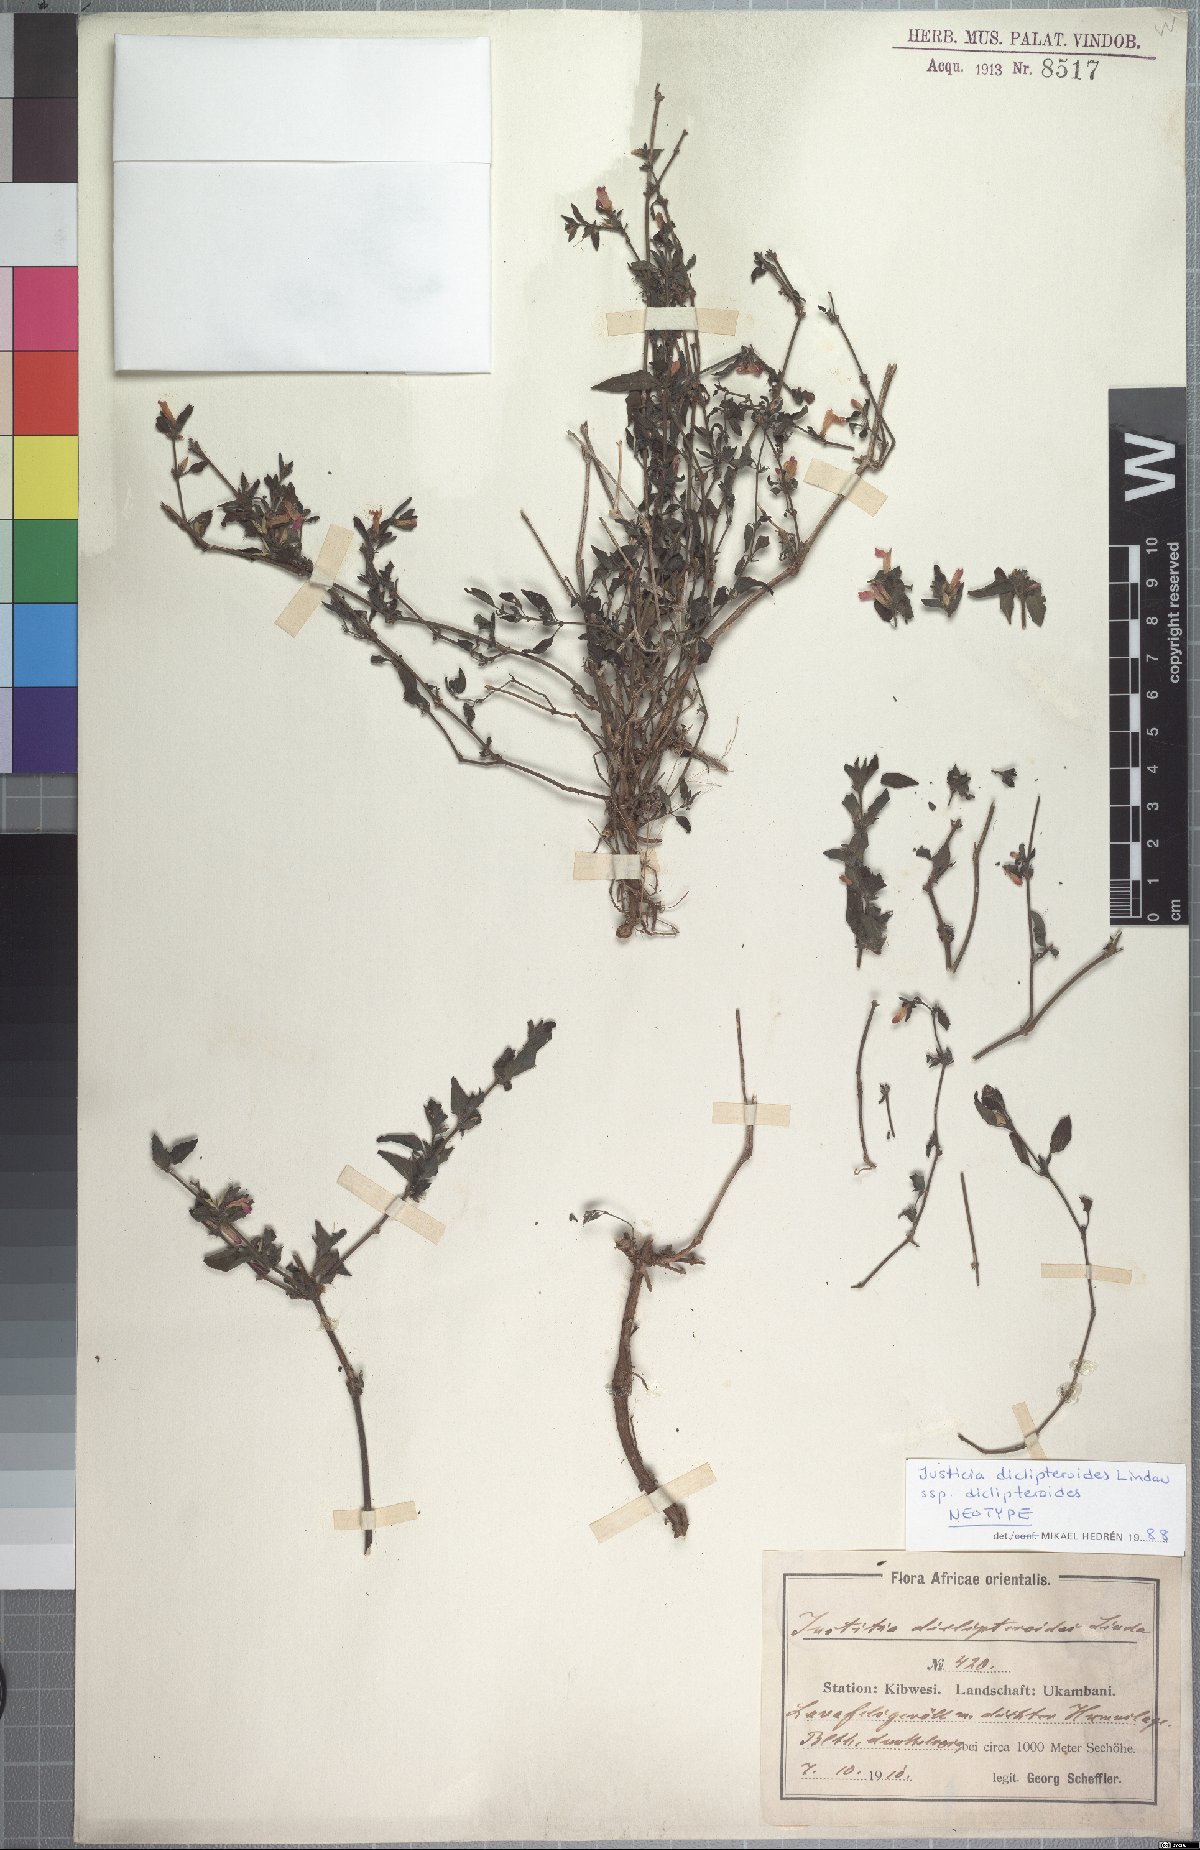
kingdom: Plantae
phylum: Tracheophyta
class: Magnoliopsida
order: Lamiales
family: Acanthaceae
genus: Justicia
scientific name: Justicia diclipteroides
